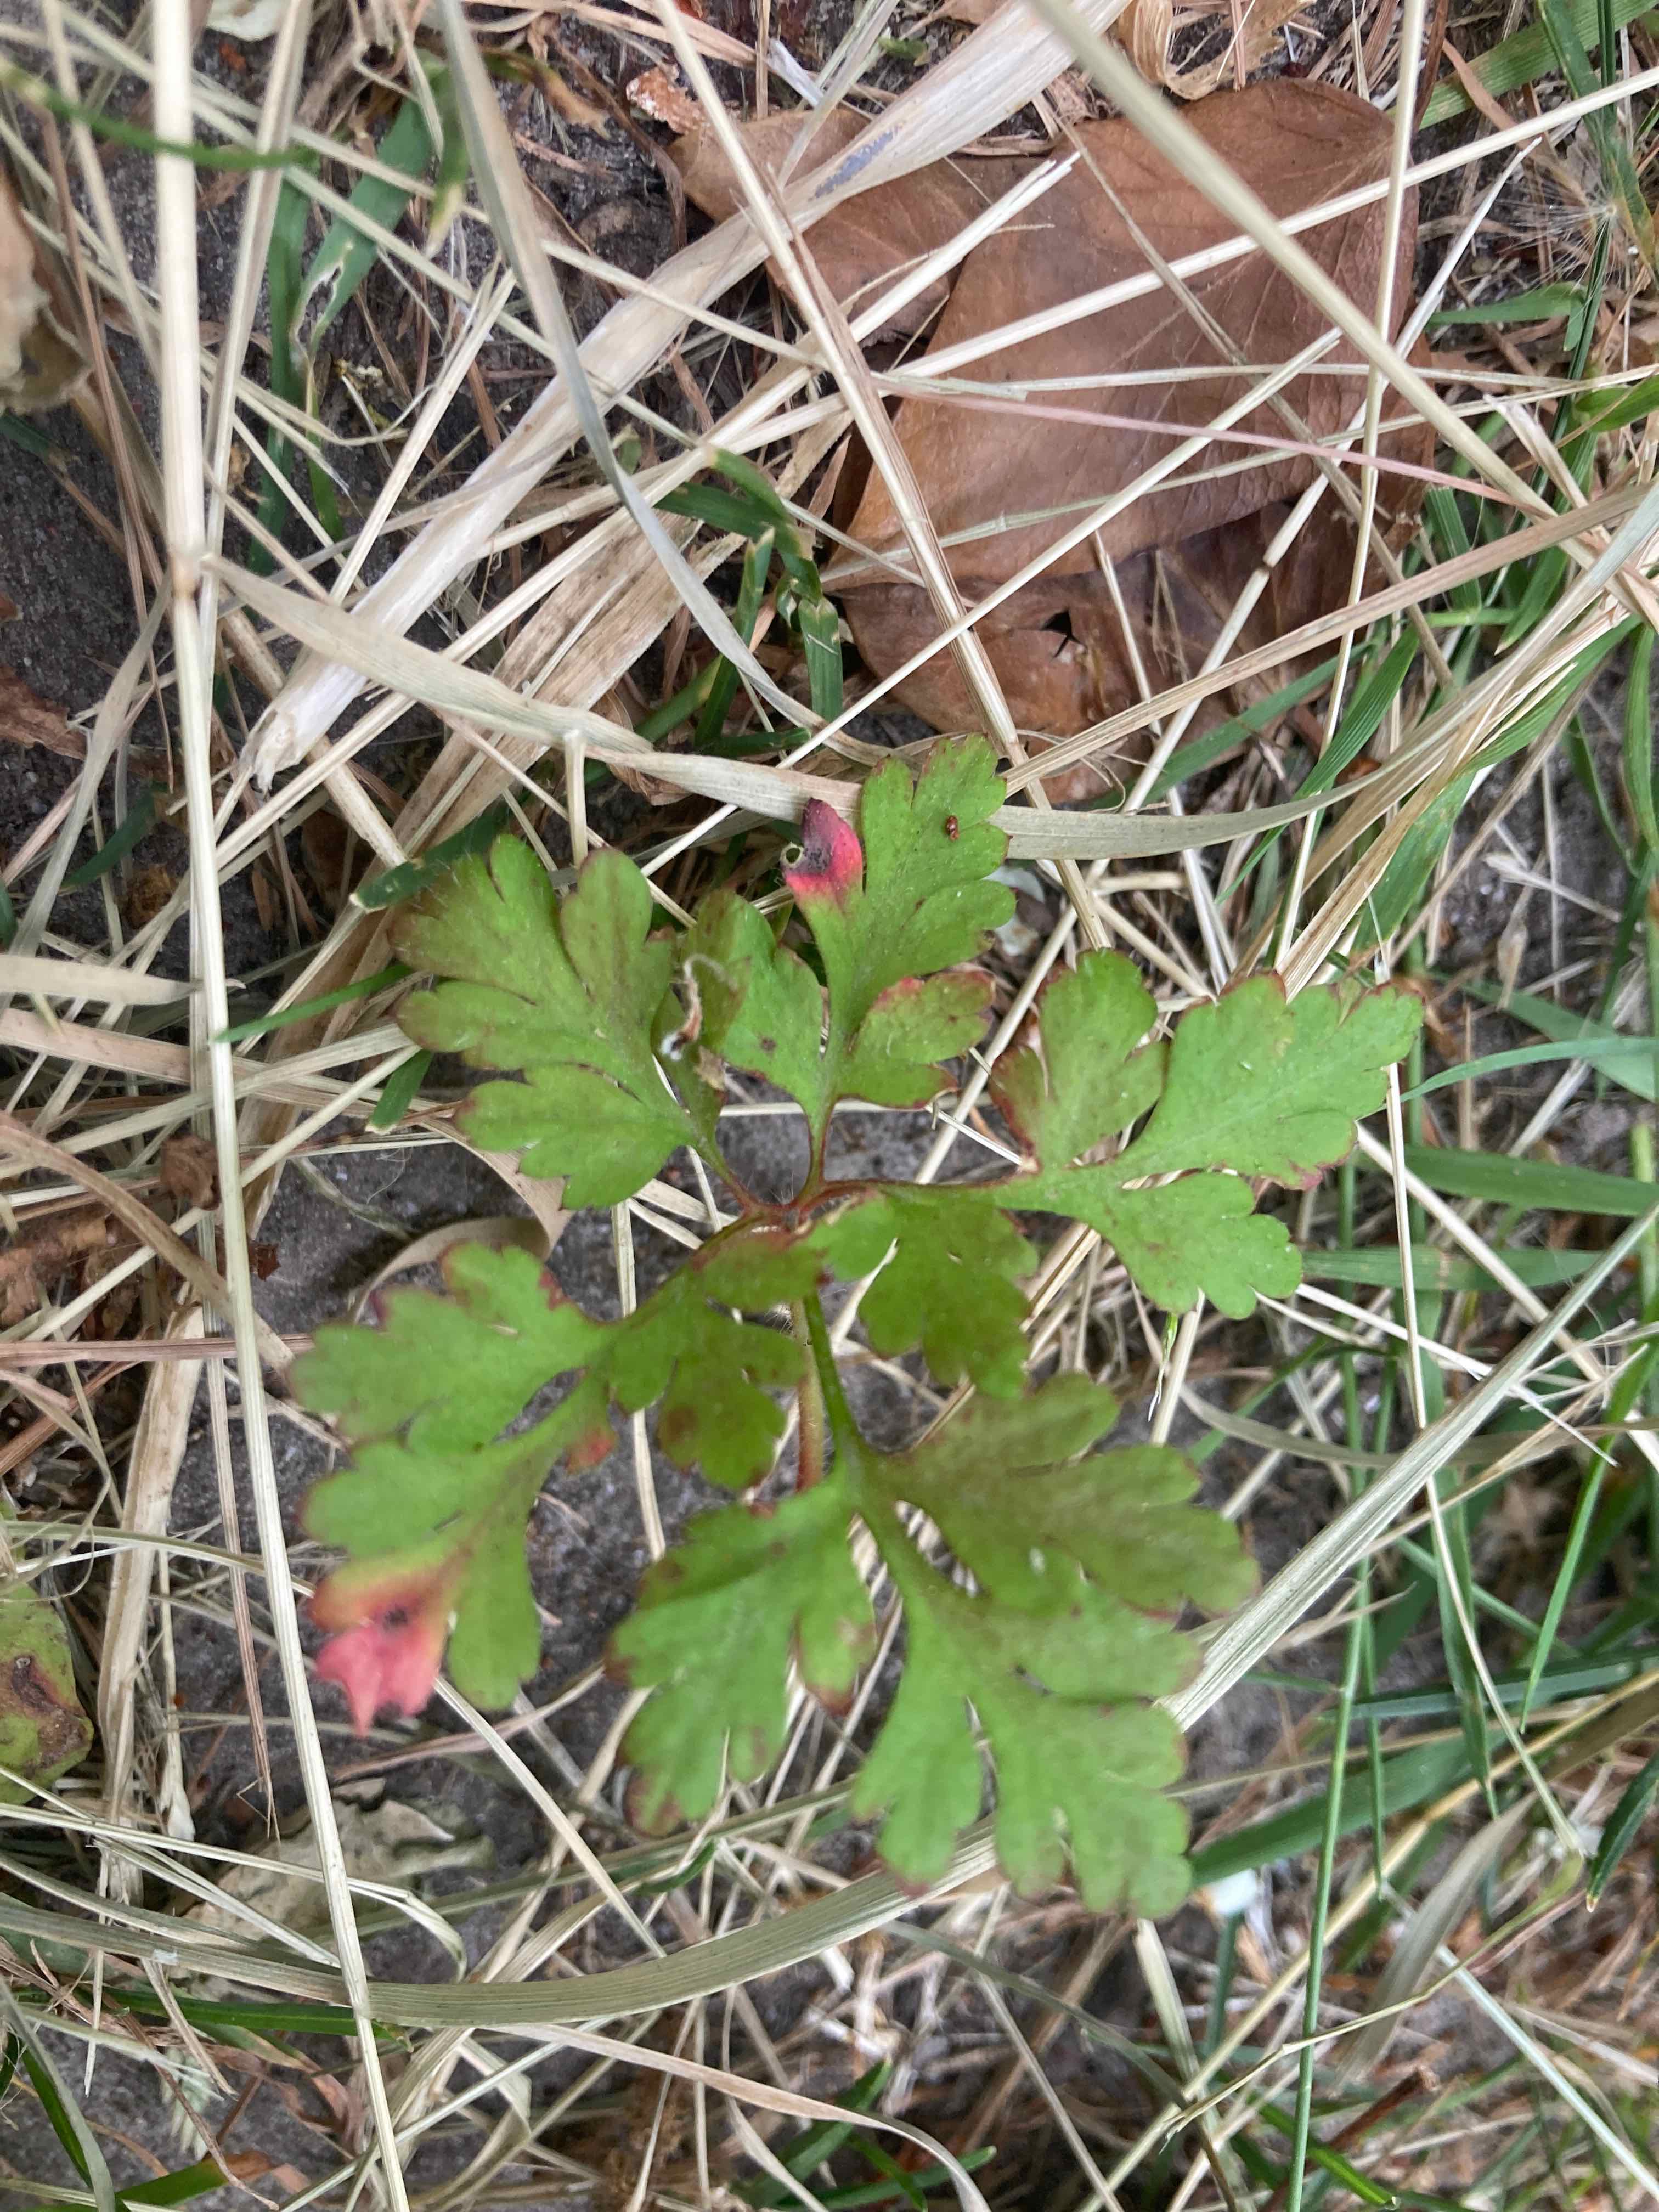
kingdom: Fungi
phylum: Ascomycota
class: Dothideomycetes
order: Venturiales
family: Venturiaceae
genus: Coleroa
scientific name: Coleroa robertiani
